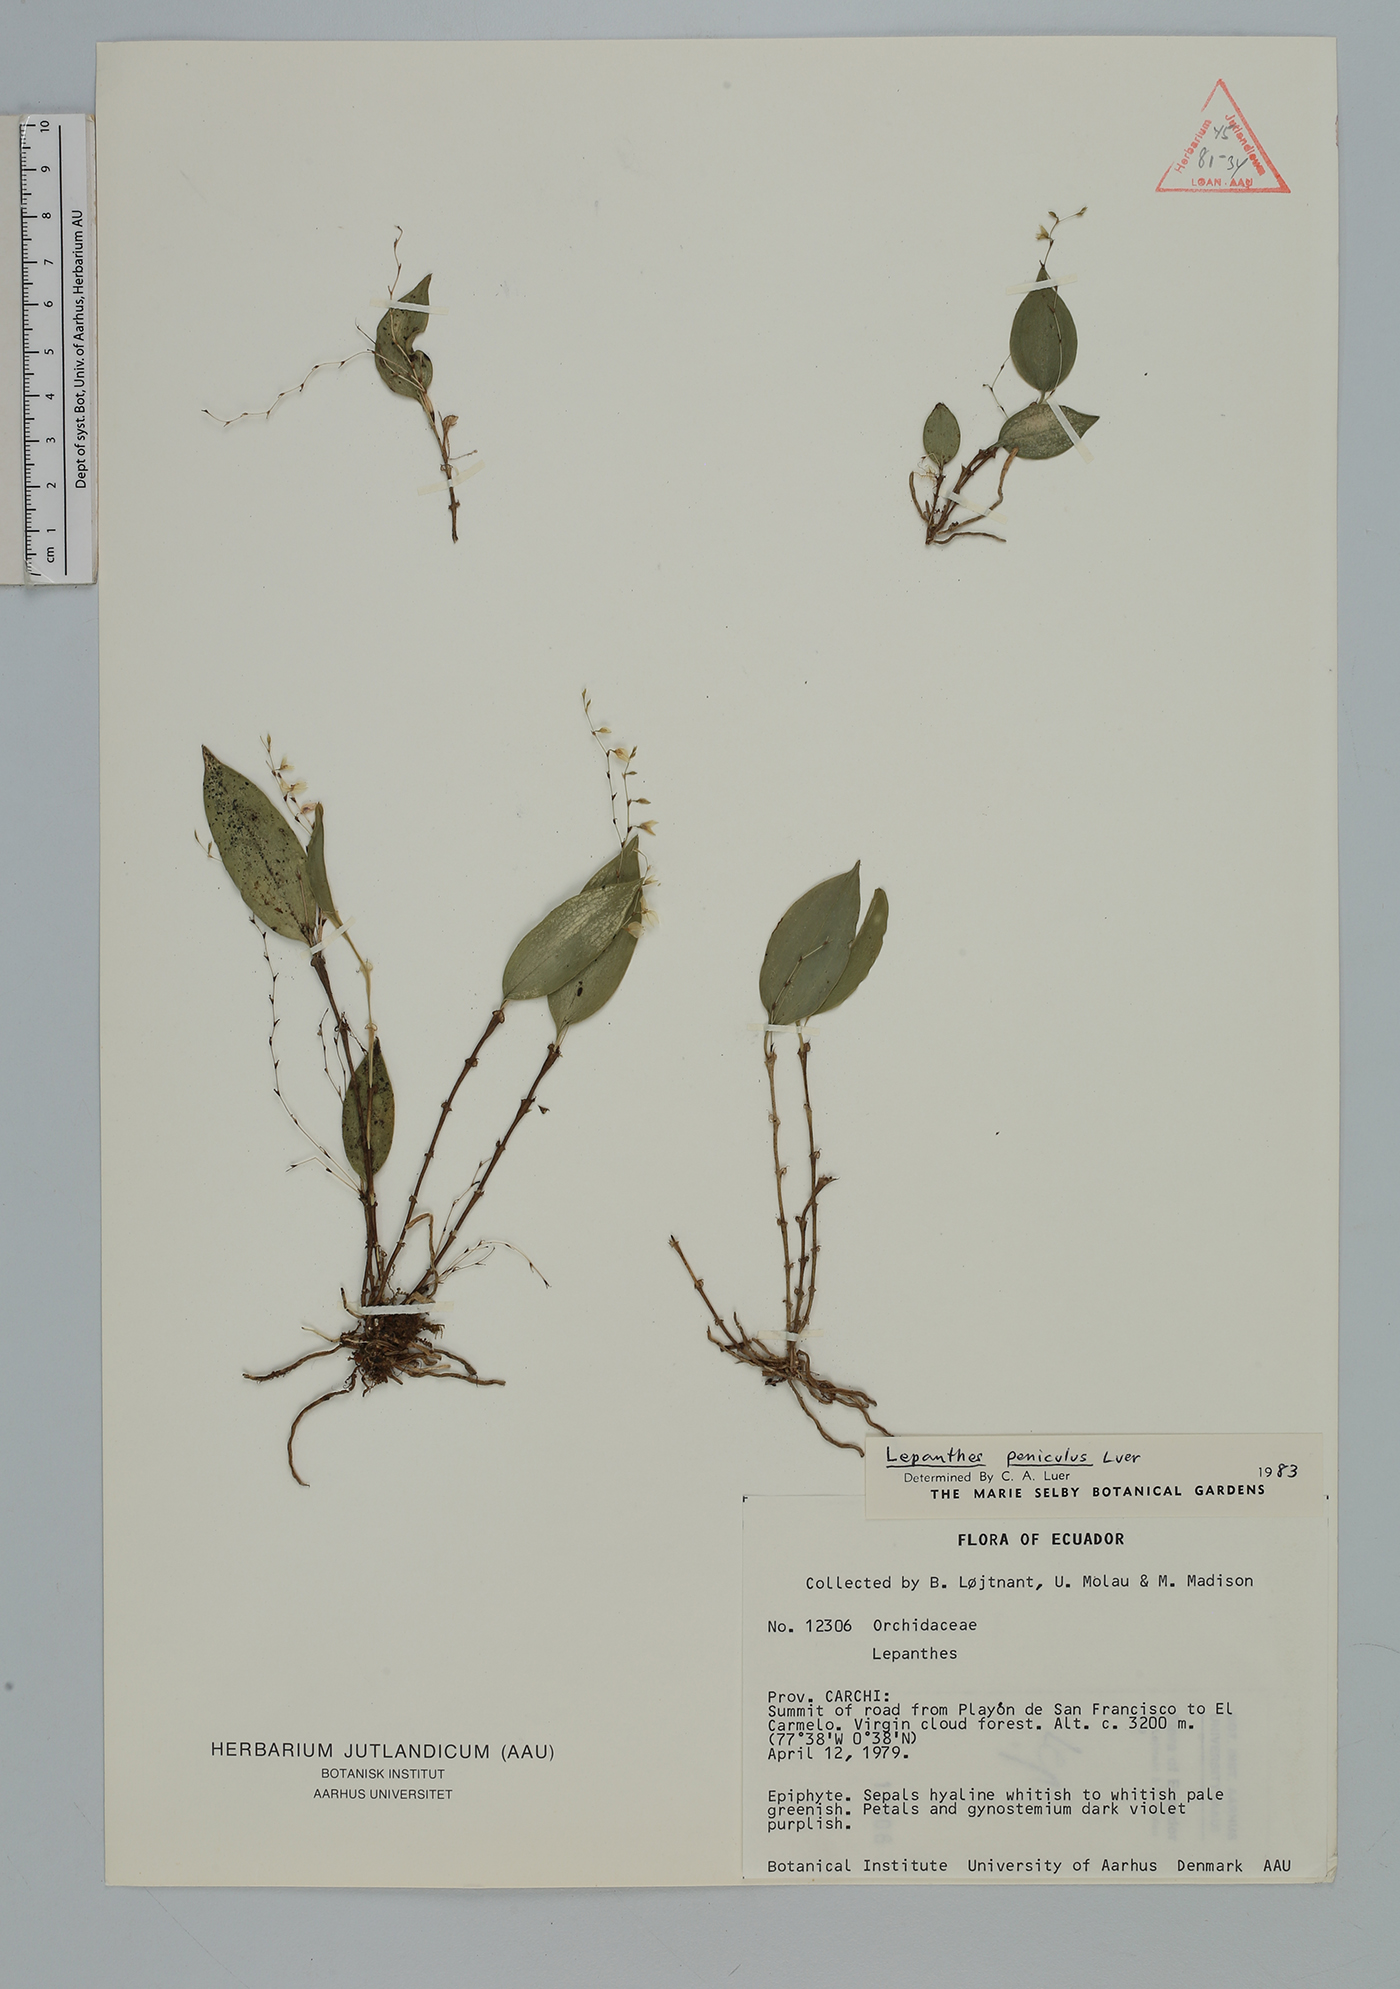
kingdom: Plantae
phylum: Tracheophyta
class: Liliopsida
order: Asparagales
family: Orchidaceae
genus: Lepanthes
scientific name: Lepanthes
